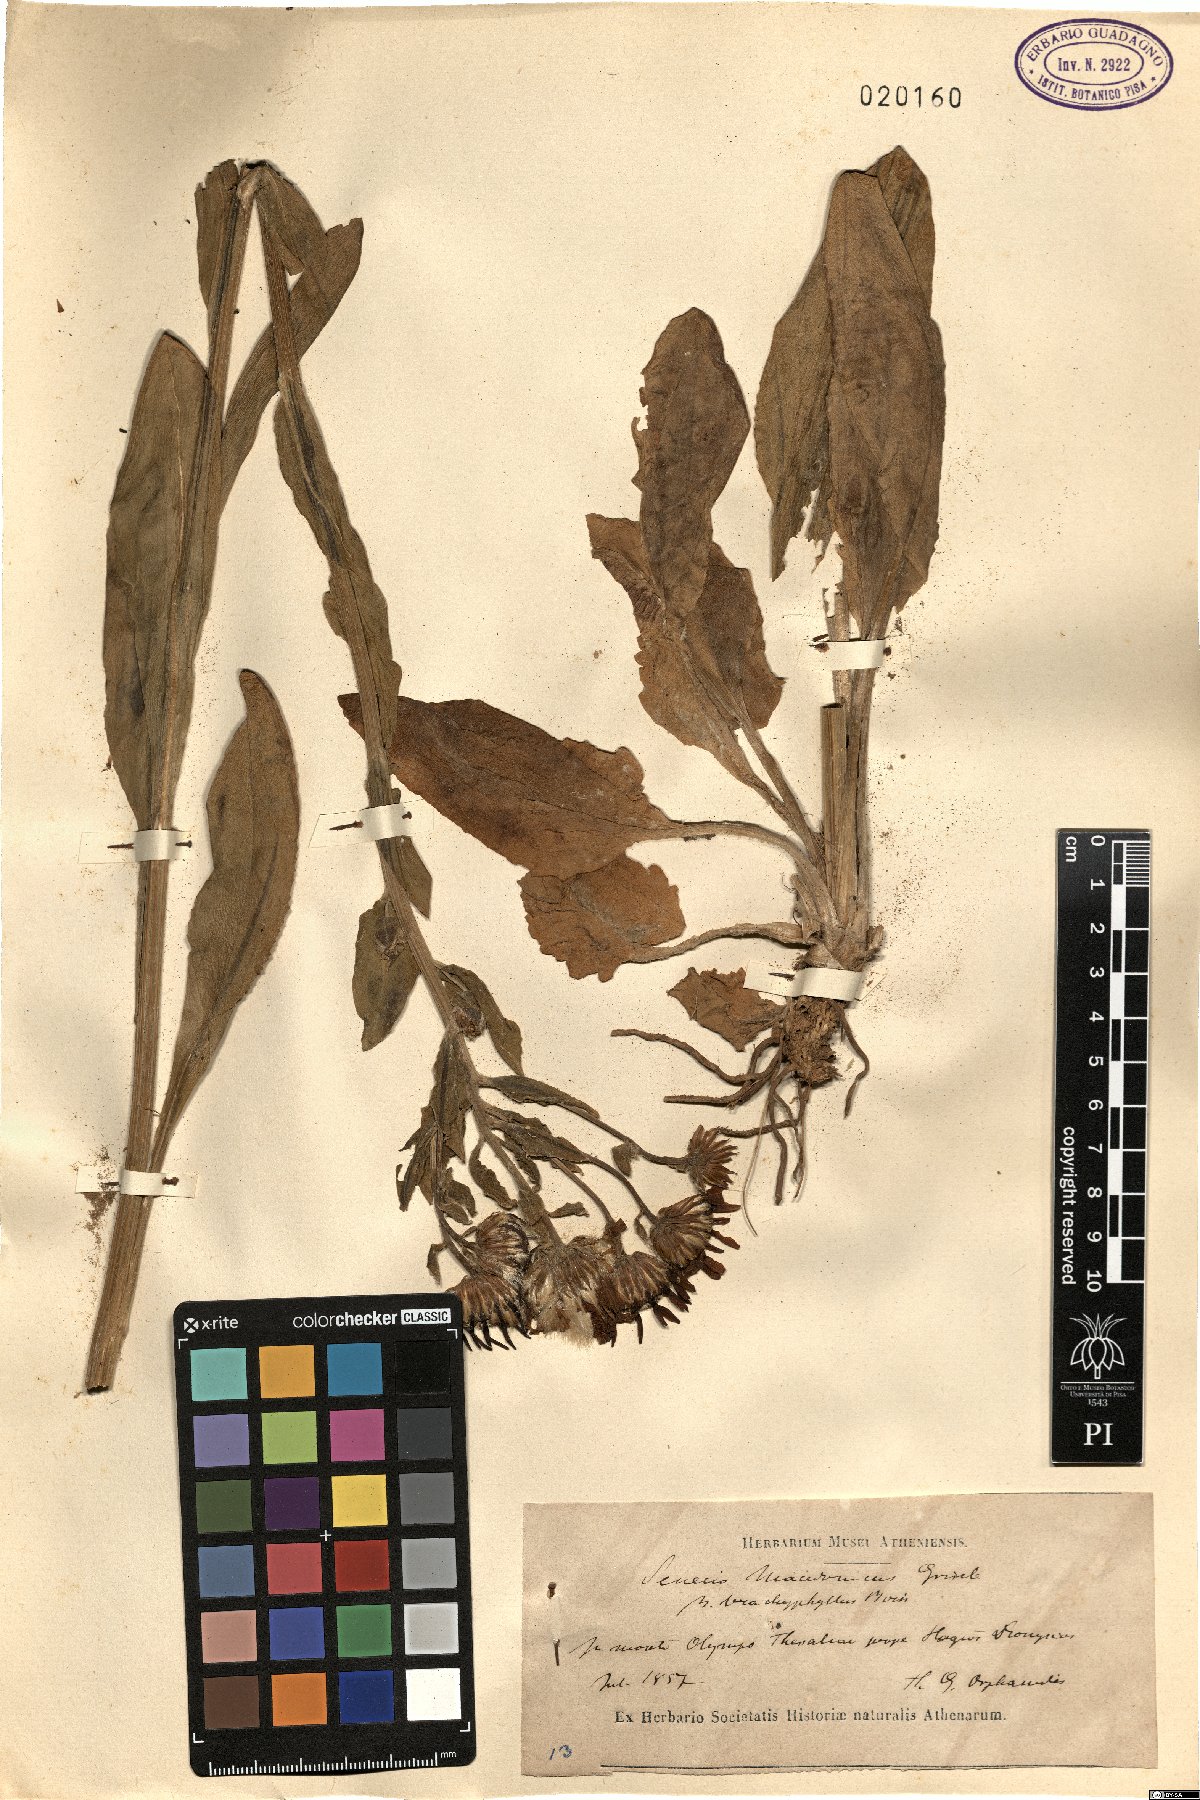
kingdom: Plantae
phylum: Tracheophyta
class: Magnoliopsida
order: Asterales
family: Asteraceae
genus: Senecio
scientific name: Senecio macedonicus
